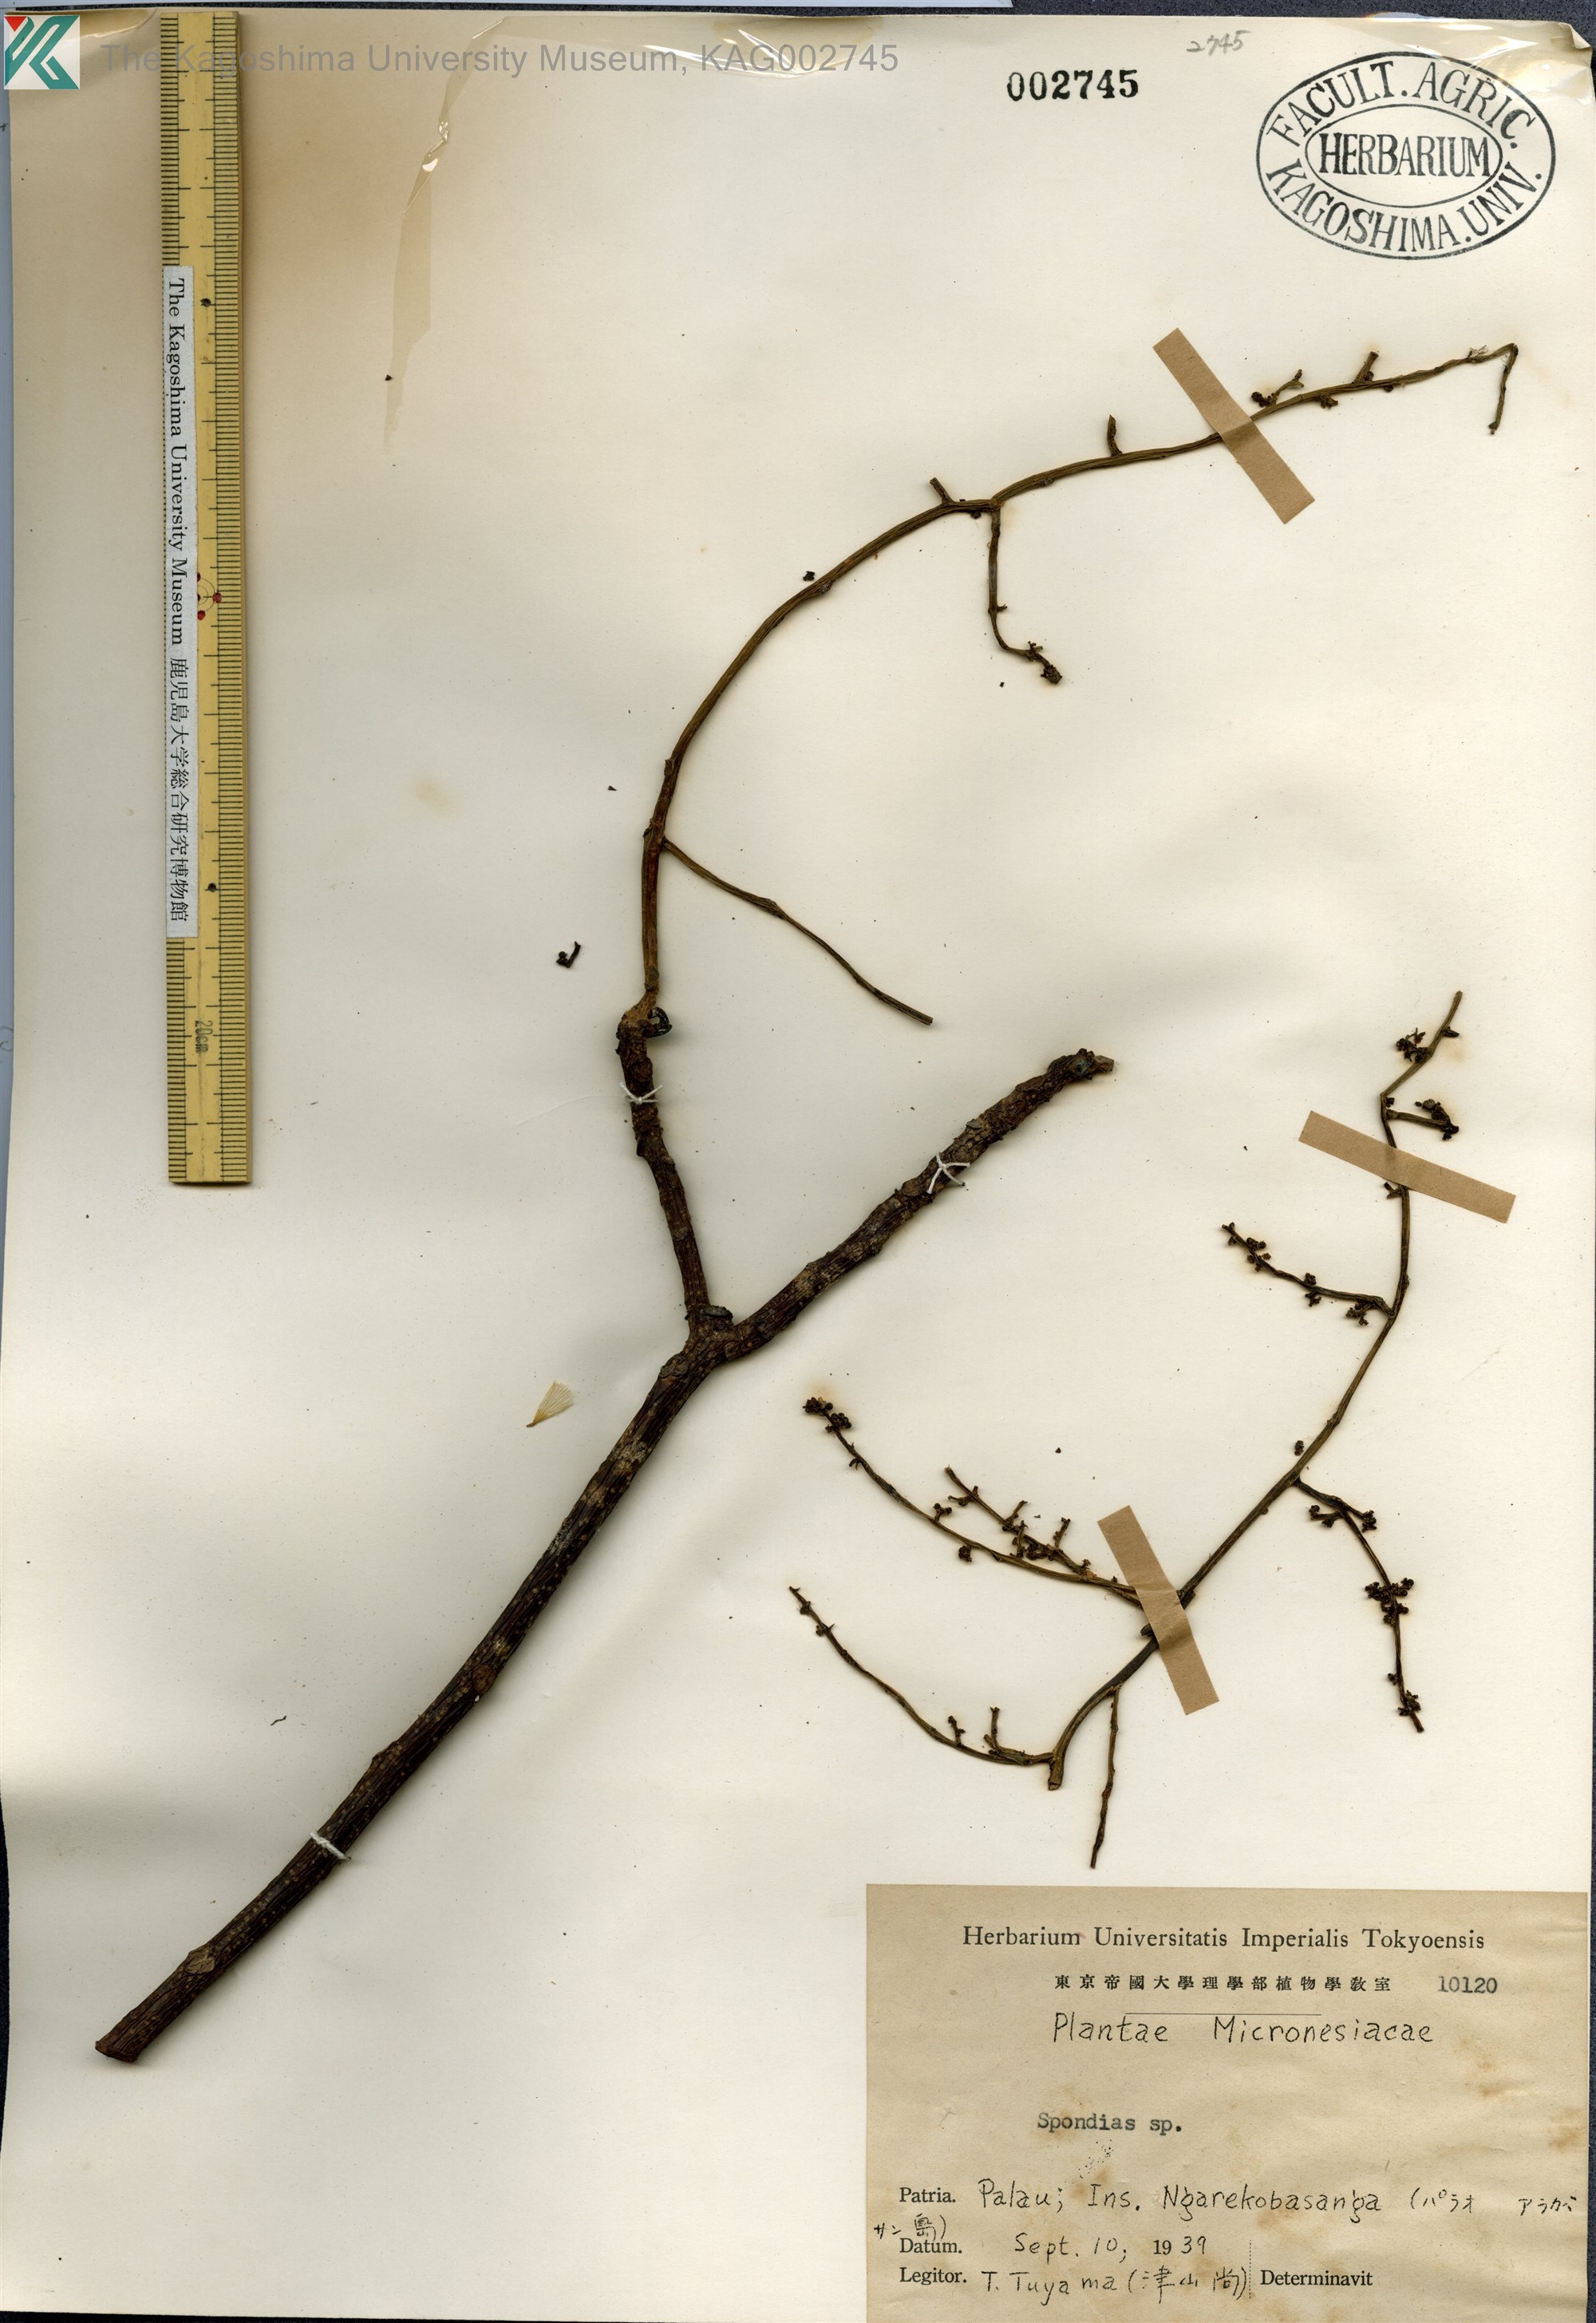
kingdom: Plantae
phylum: Tracheophyta
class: Magnoliopsida
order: Sapindales
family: Anacardiaceae
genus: Spondias
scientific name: Spondias
